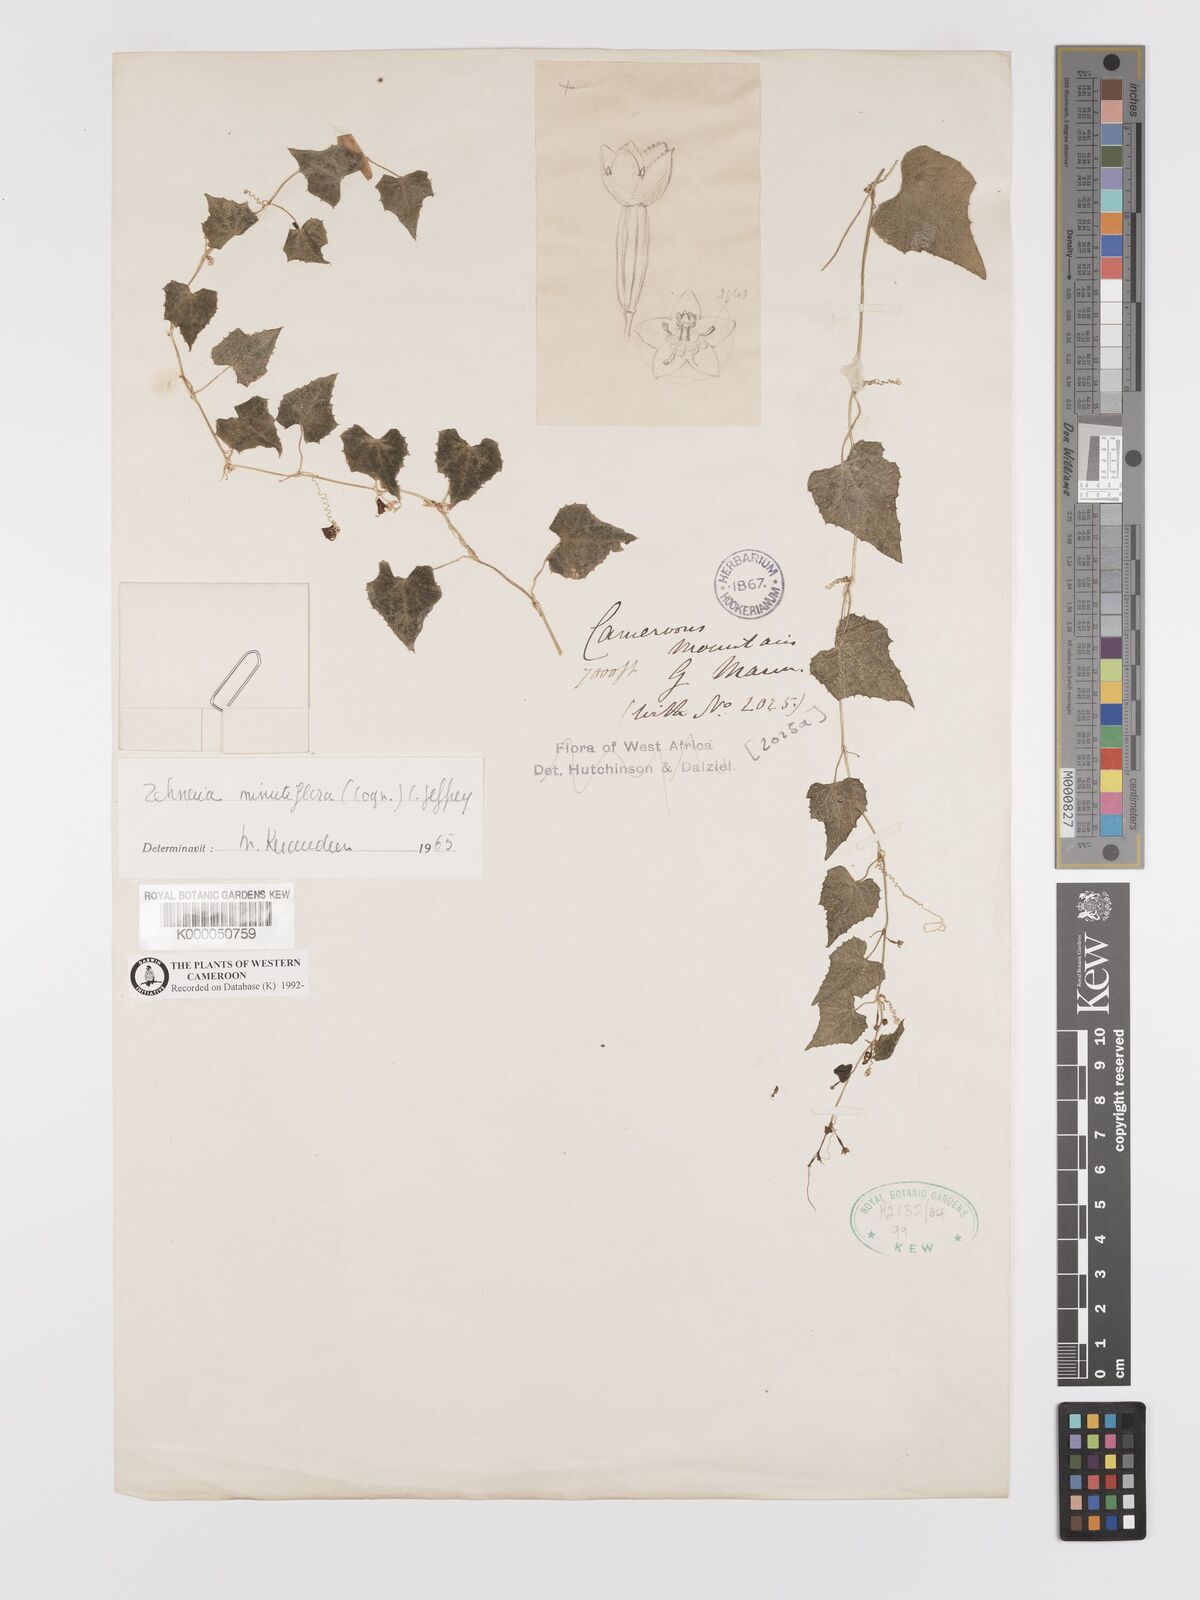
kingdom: Plantae
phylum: Tracheophyta
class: Magnoliopsida
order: Cucurbitales
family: Cucurbitaceae
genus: Zehneria
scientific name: Zehneria minutiflora
